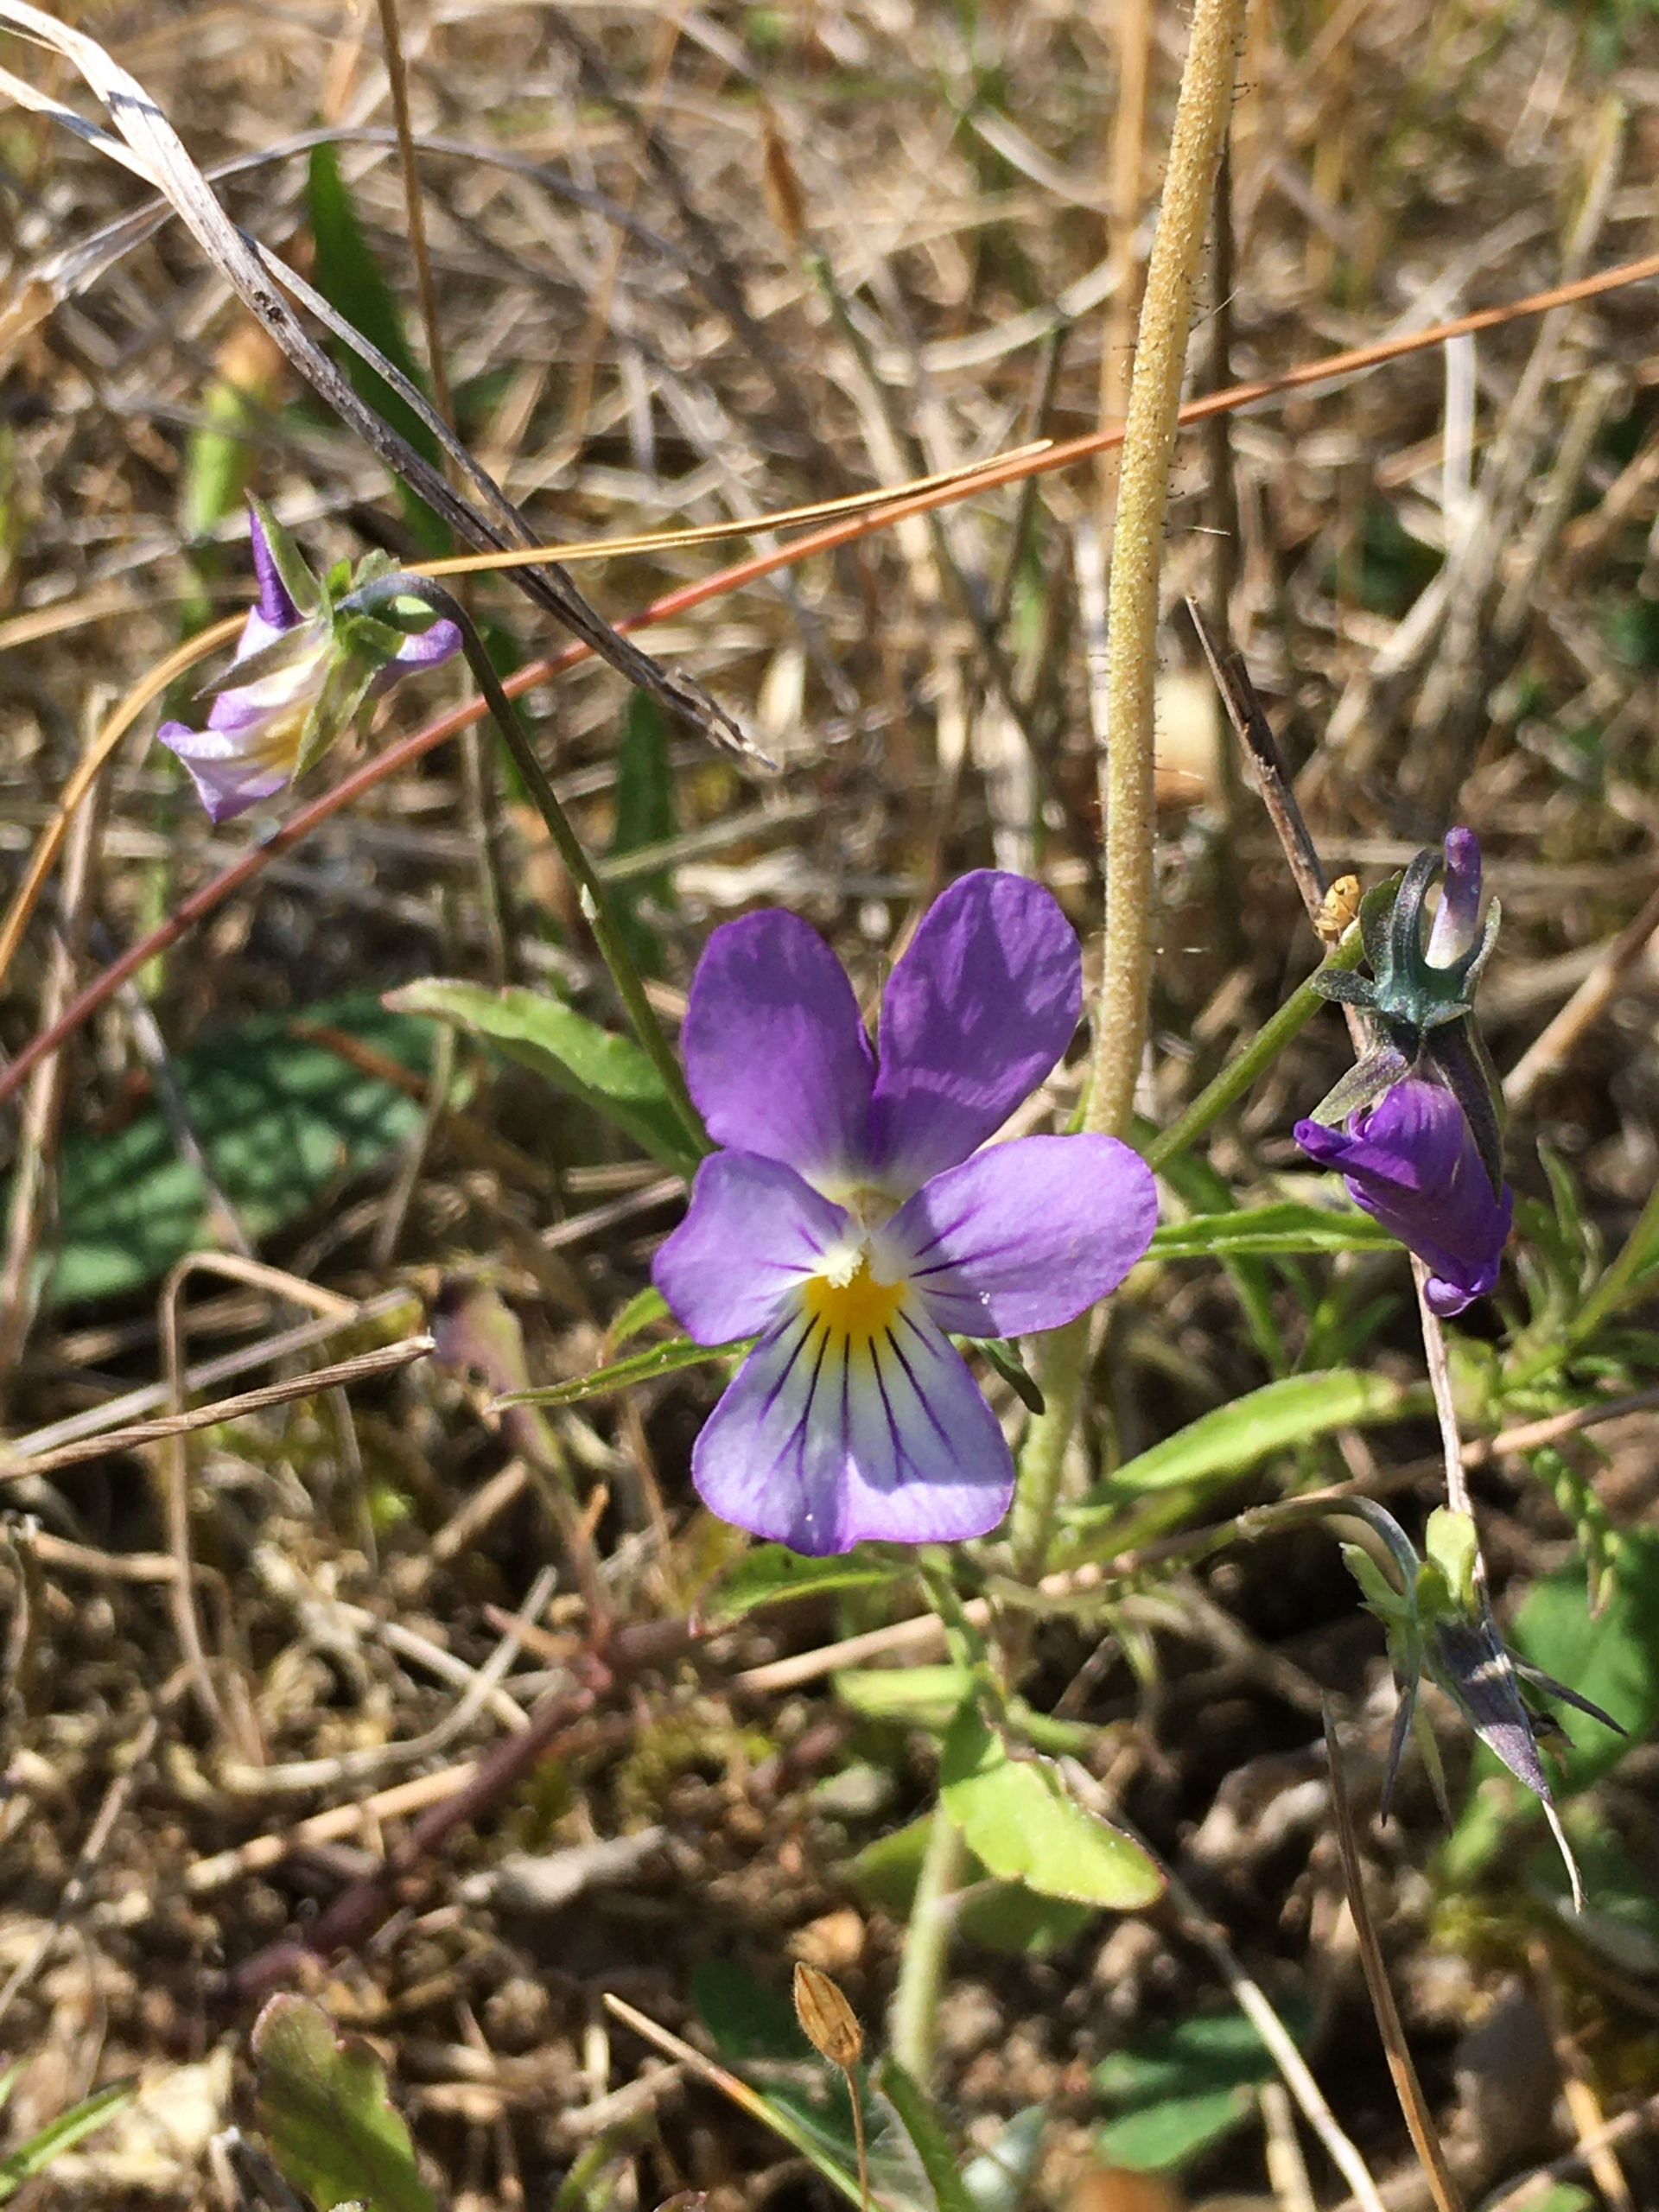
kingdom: Plantae
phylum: Tracheophyta
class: Magnoliopsida
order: Malpighiales
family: Violaceae
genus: Viola
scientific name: Viola tricolor
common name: Almindelig stedmoderblomst
